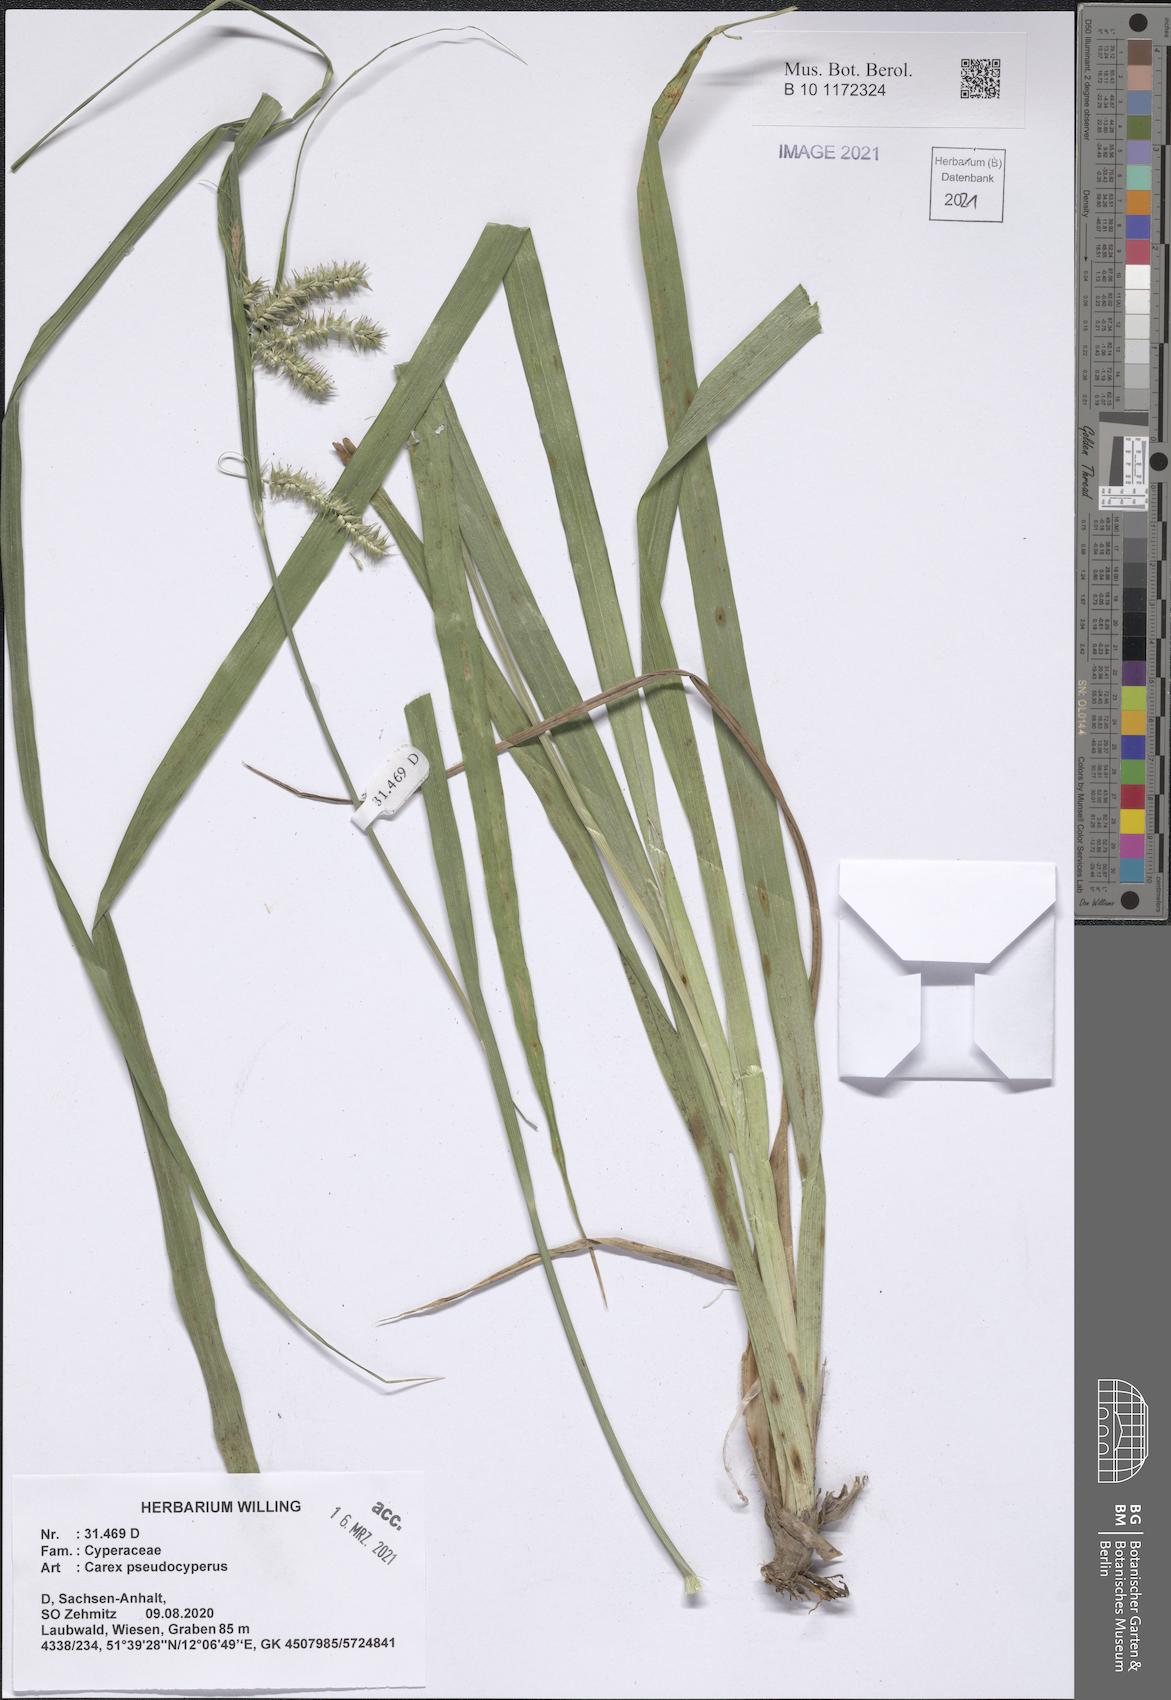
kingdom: Plantae
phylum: Tracheophyta
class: Liliopsida
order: Poales
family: Cyperaceae
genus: Carex
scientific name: Carex pseudocyperus
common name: Cyperus sedge
